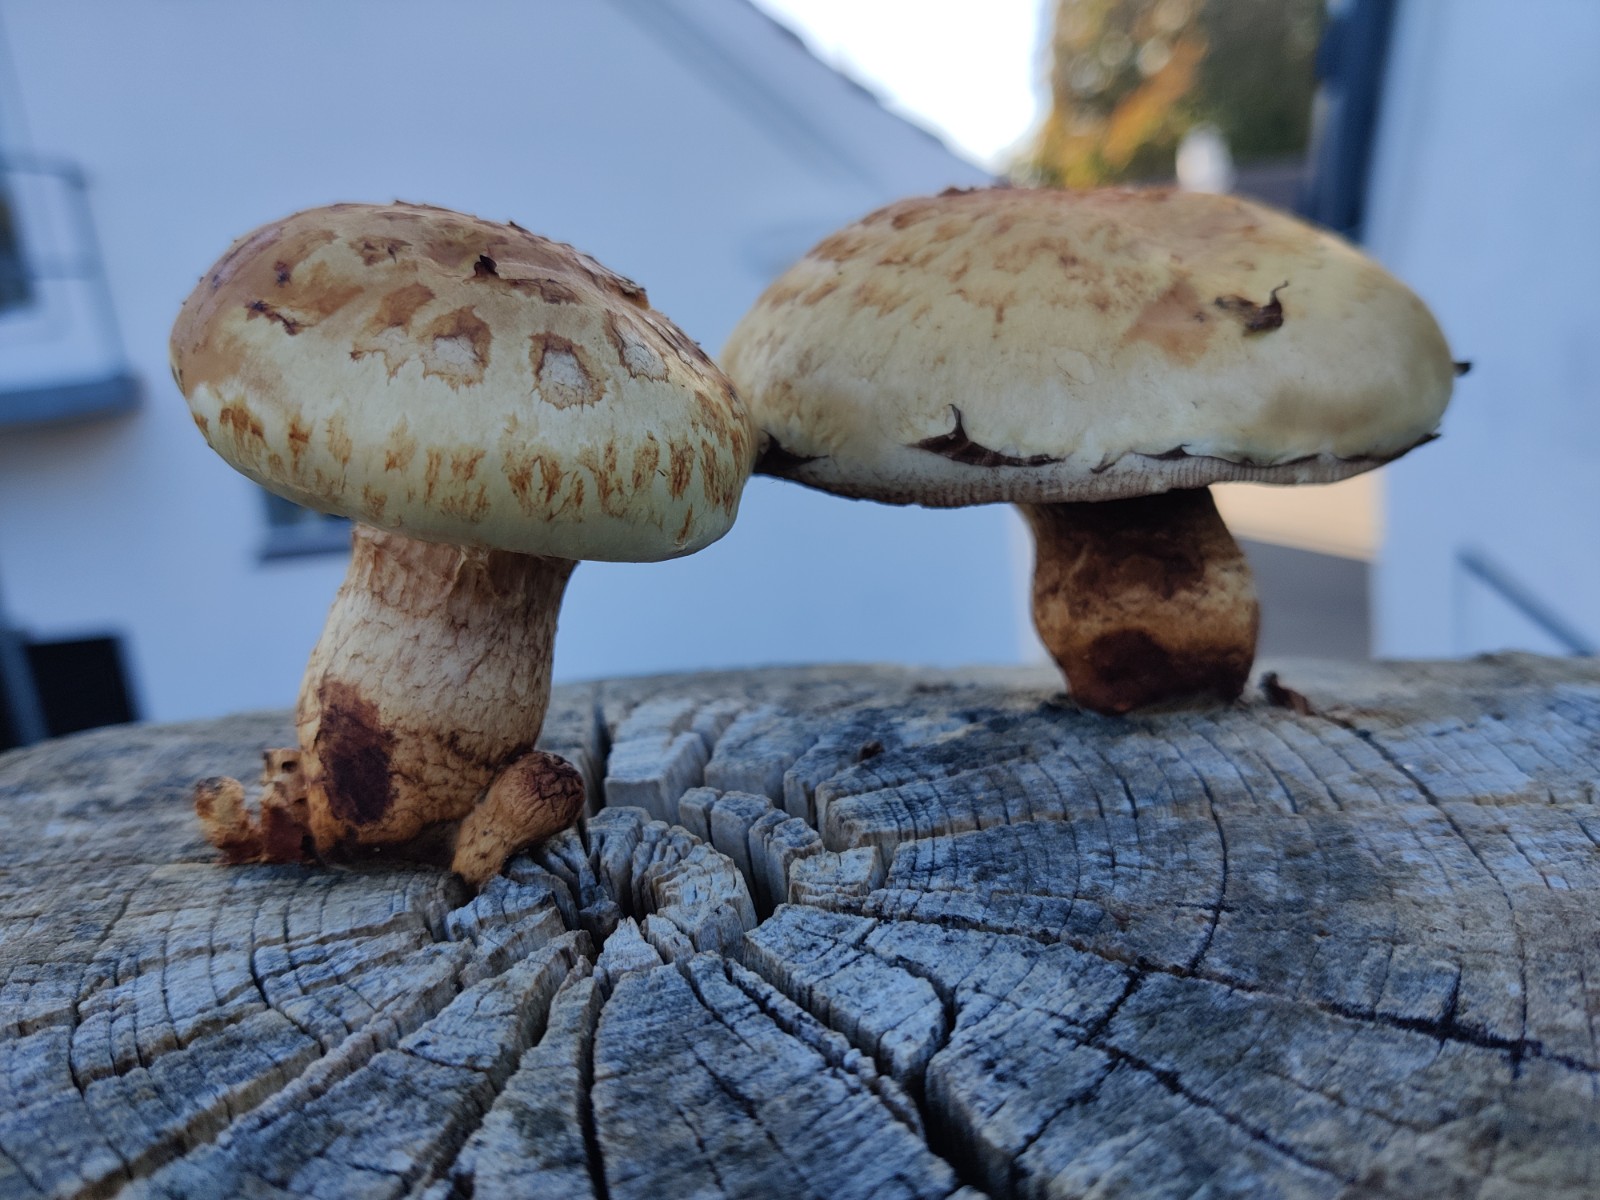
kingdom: Fungi
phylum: Basidiomycota
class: Agaricomycetes
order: Agaricales
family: Strophariaceae
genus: Pholiota
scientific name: Pholiota populnea
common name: poppel-kæmpeskælhat
